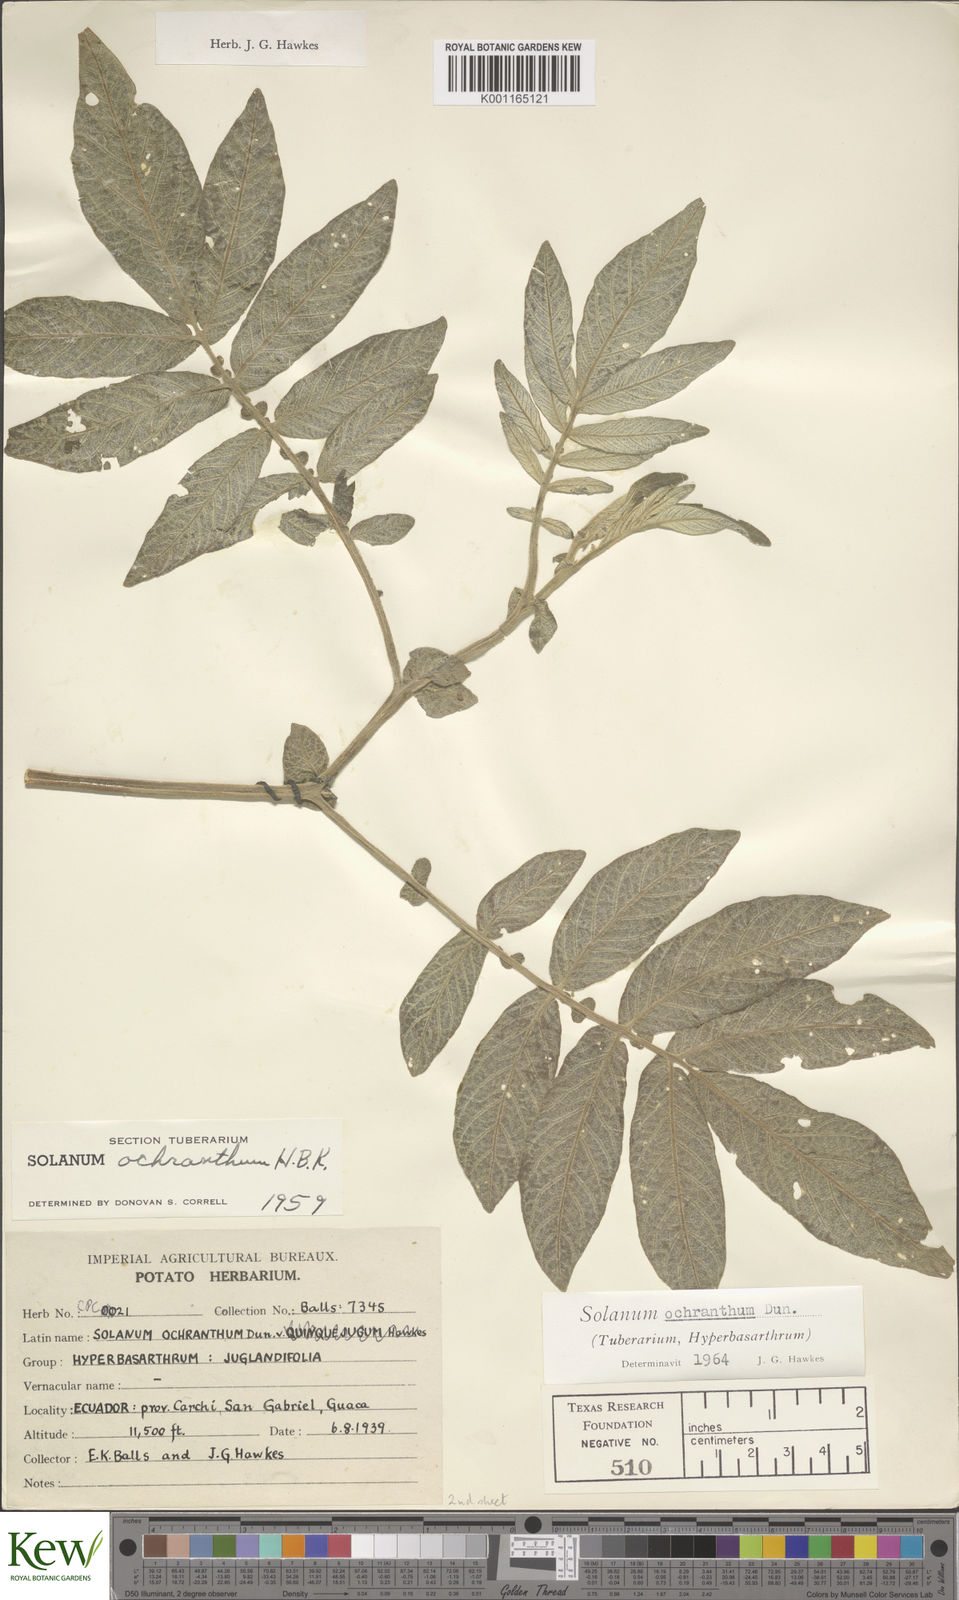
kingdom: Plantae
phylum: Tracheophyta
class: Magnoliopsida
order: Solanales
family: Solanaceae
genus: Solanum
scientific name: Solanum ochranthum
